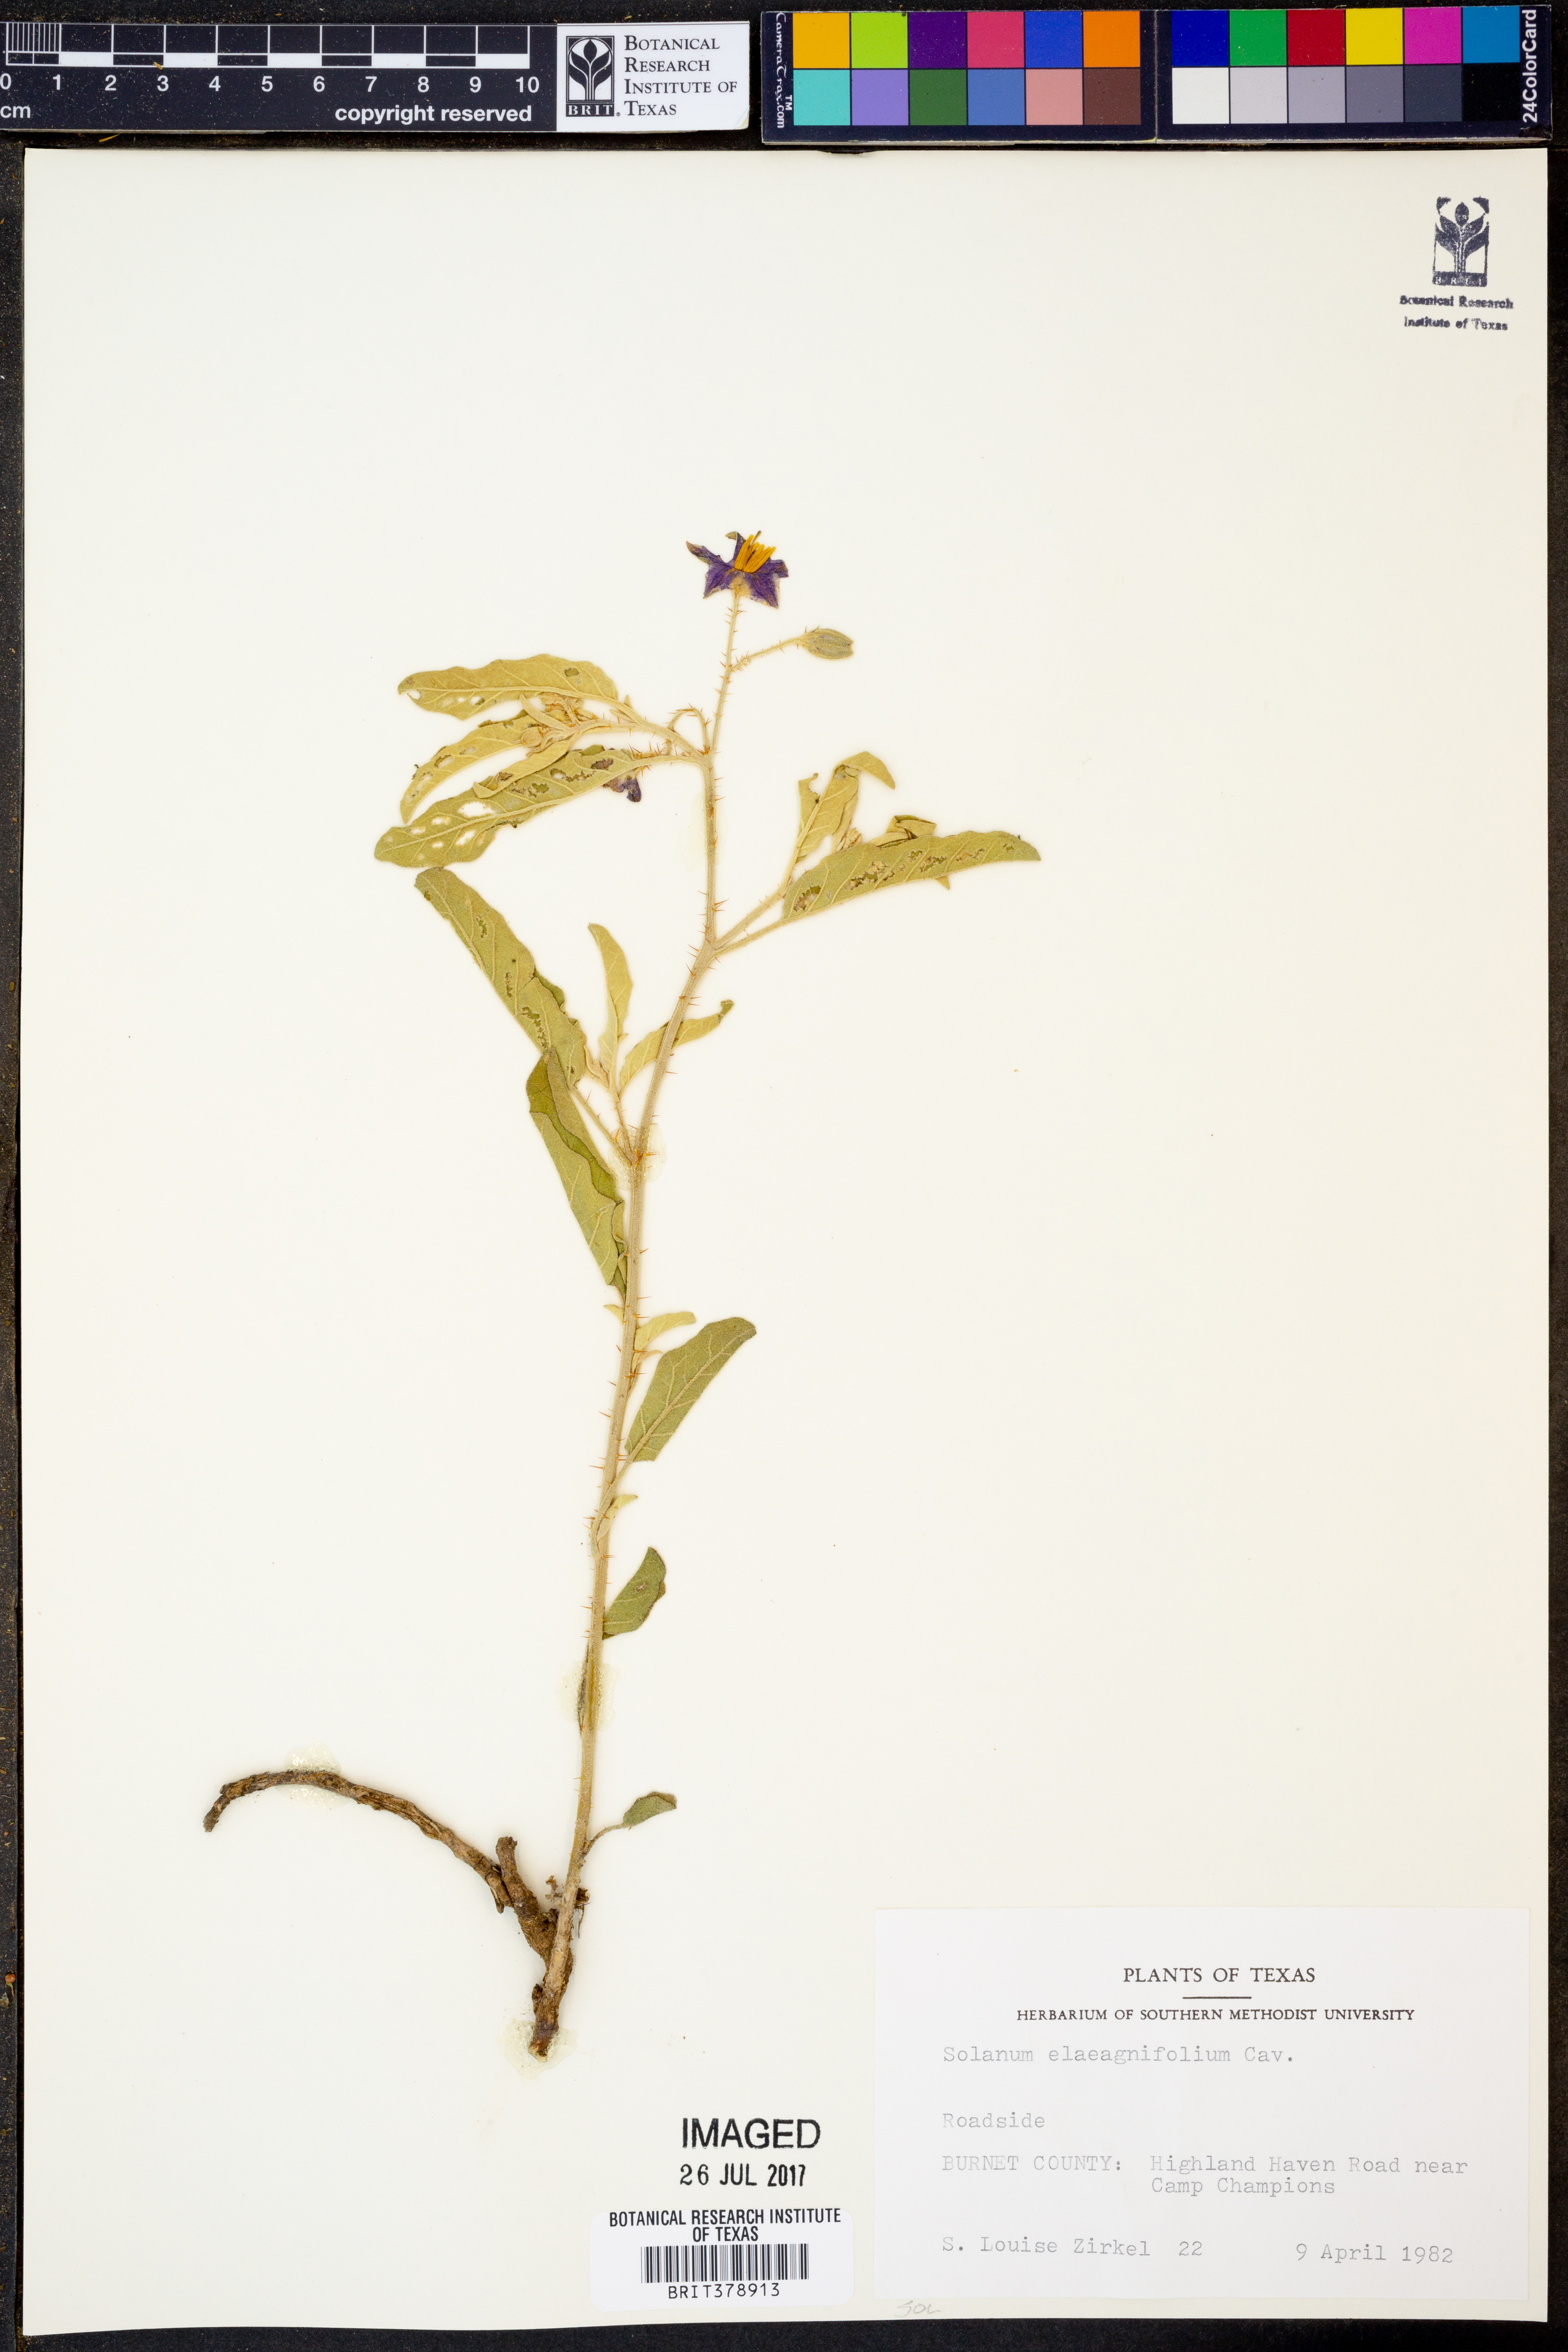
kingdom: Plantae
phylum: Tracheophyta
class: Magnoliopsida
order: Solanales
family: Solanaceae
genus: Solanum
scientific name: Solanum elaeagnifolium
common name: Silverleaf nightshade
